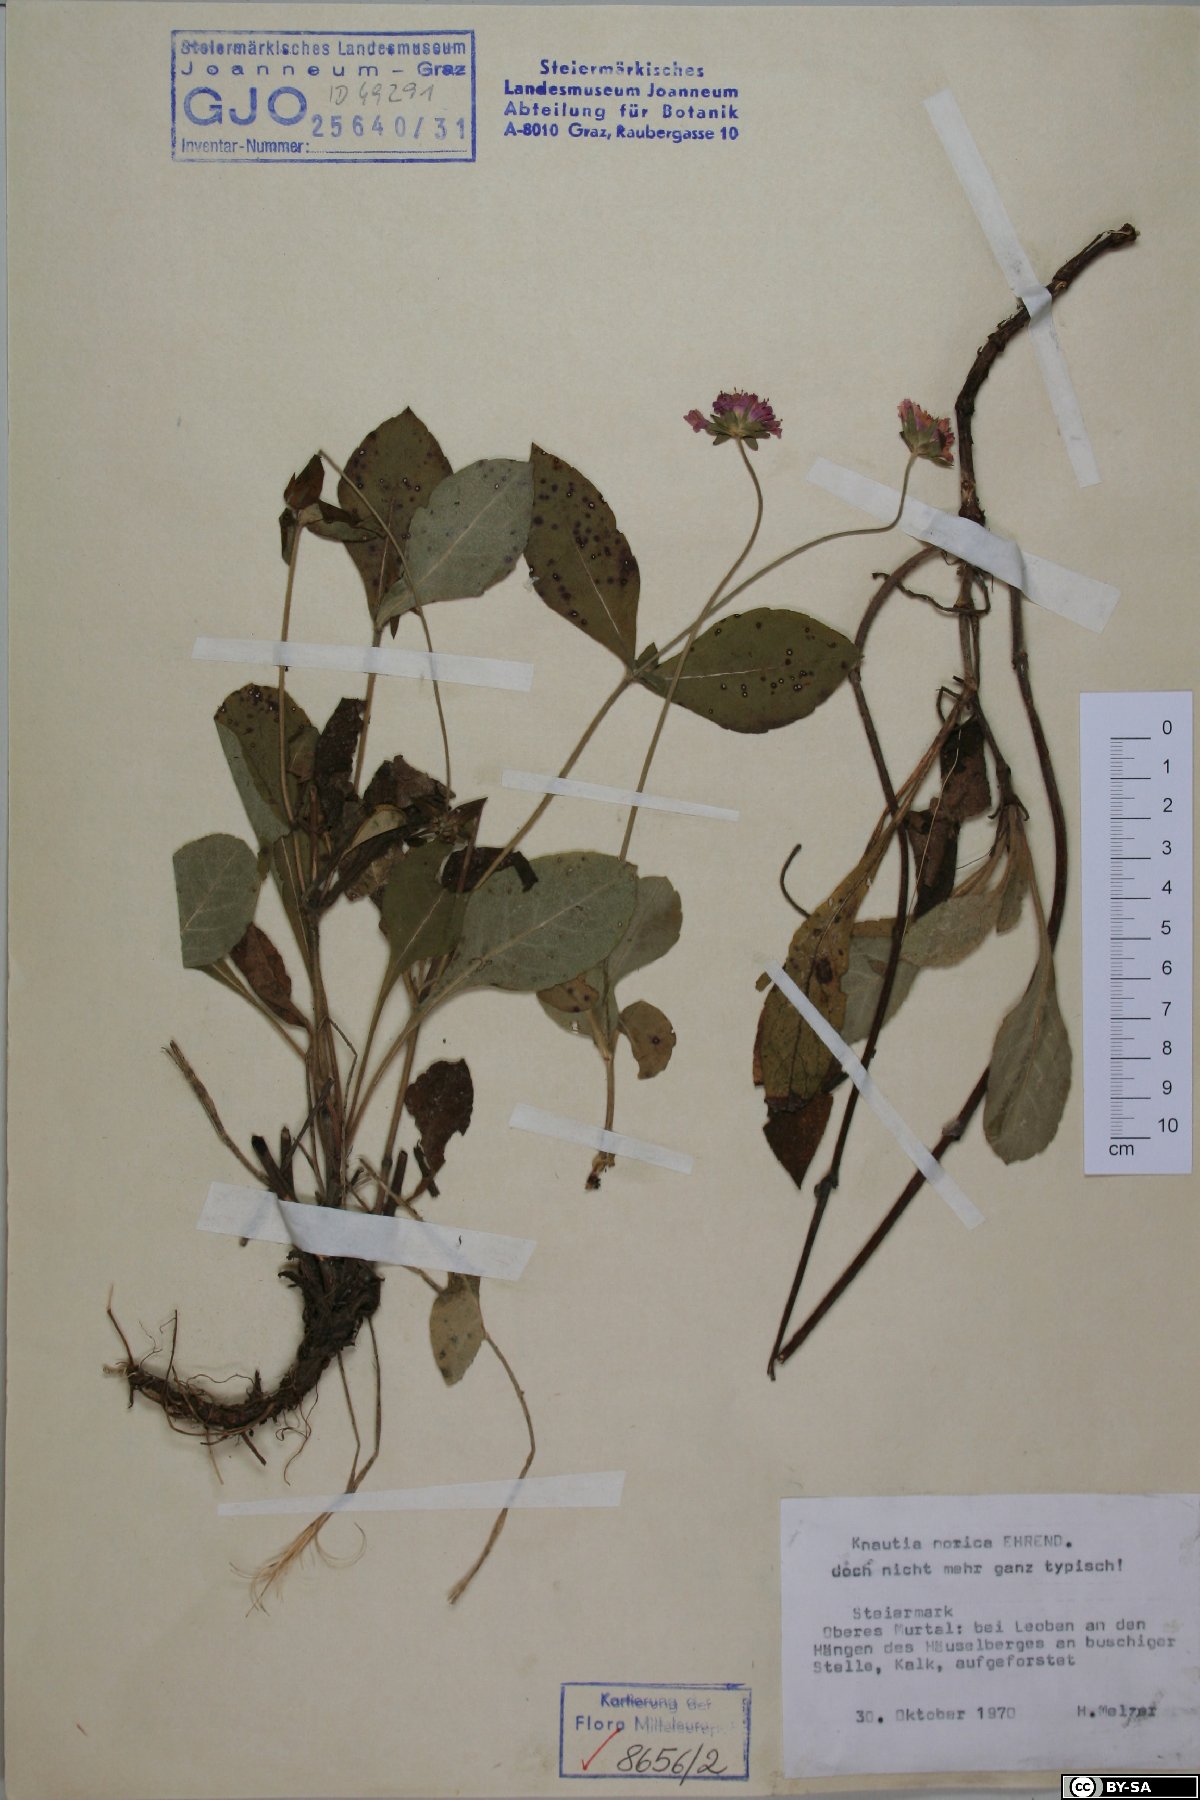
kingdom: Plantae
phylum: Tracheophyta
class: Magnoliopsida
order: Dipsacales
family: Caprifoliaceae
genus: Knautia
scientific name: Knautia norica
